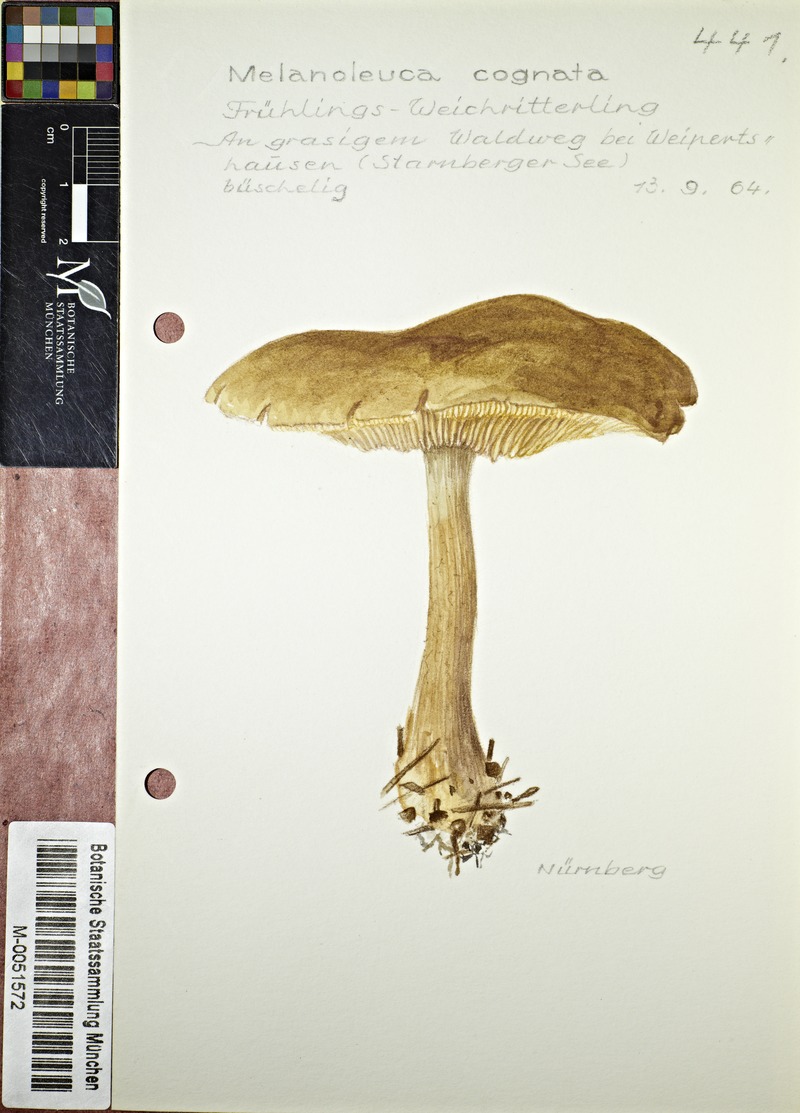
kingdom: Fungi
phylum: Basidiomycota
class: Agaricomycetes
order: Agaricales
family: Tricholomataceae
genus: Melanoleuca
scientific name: Melanoleuca cognata
